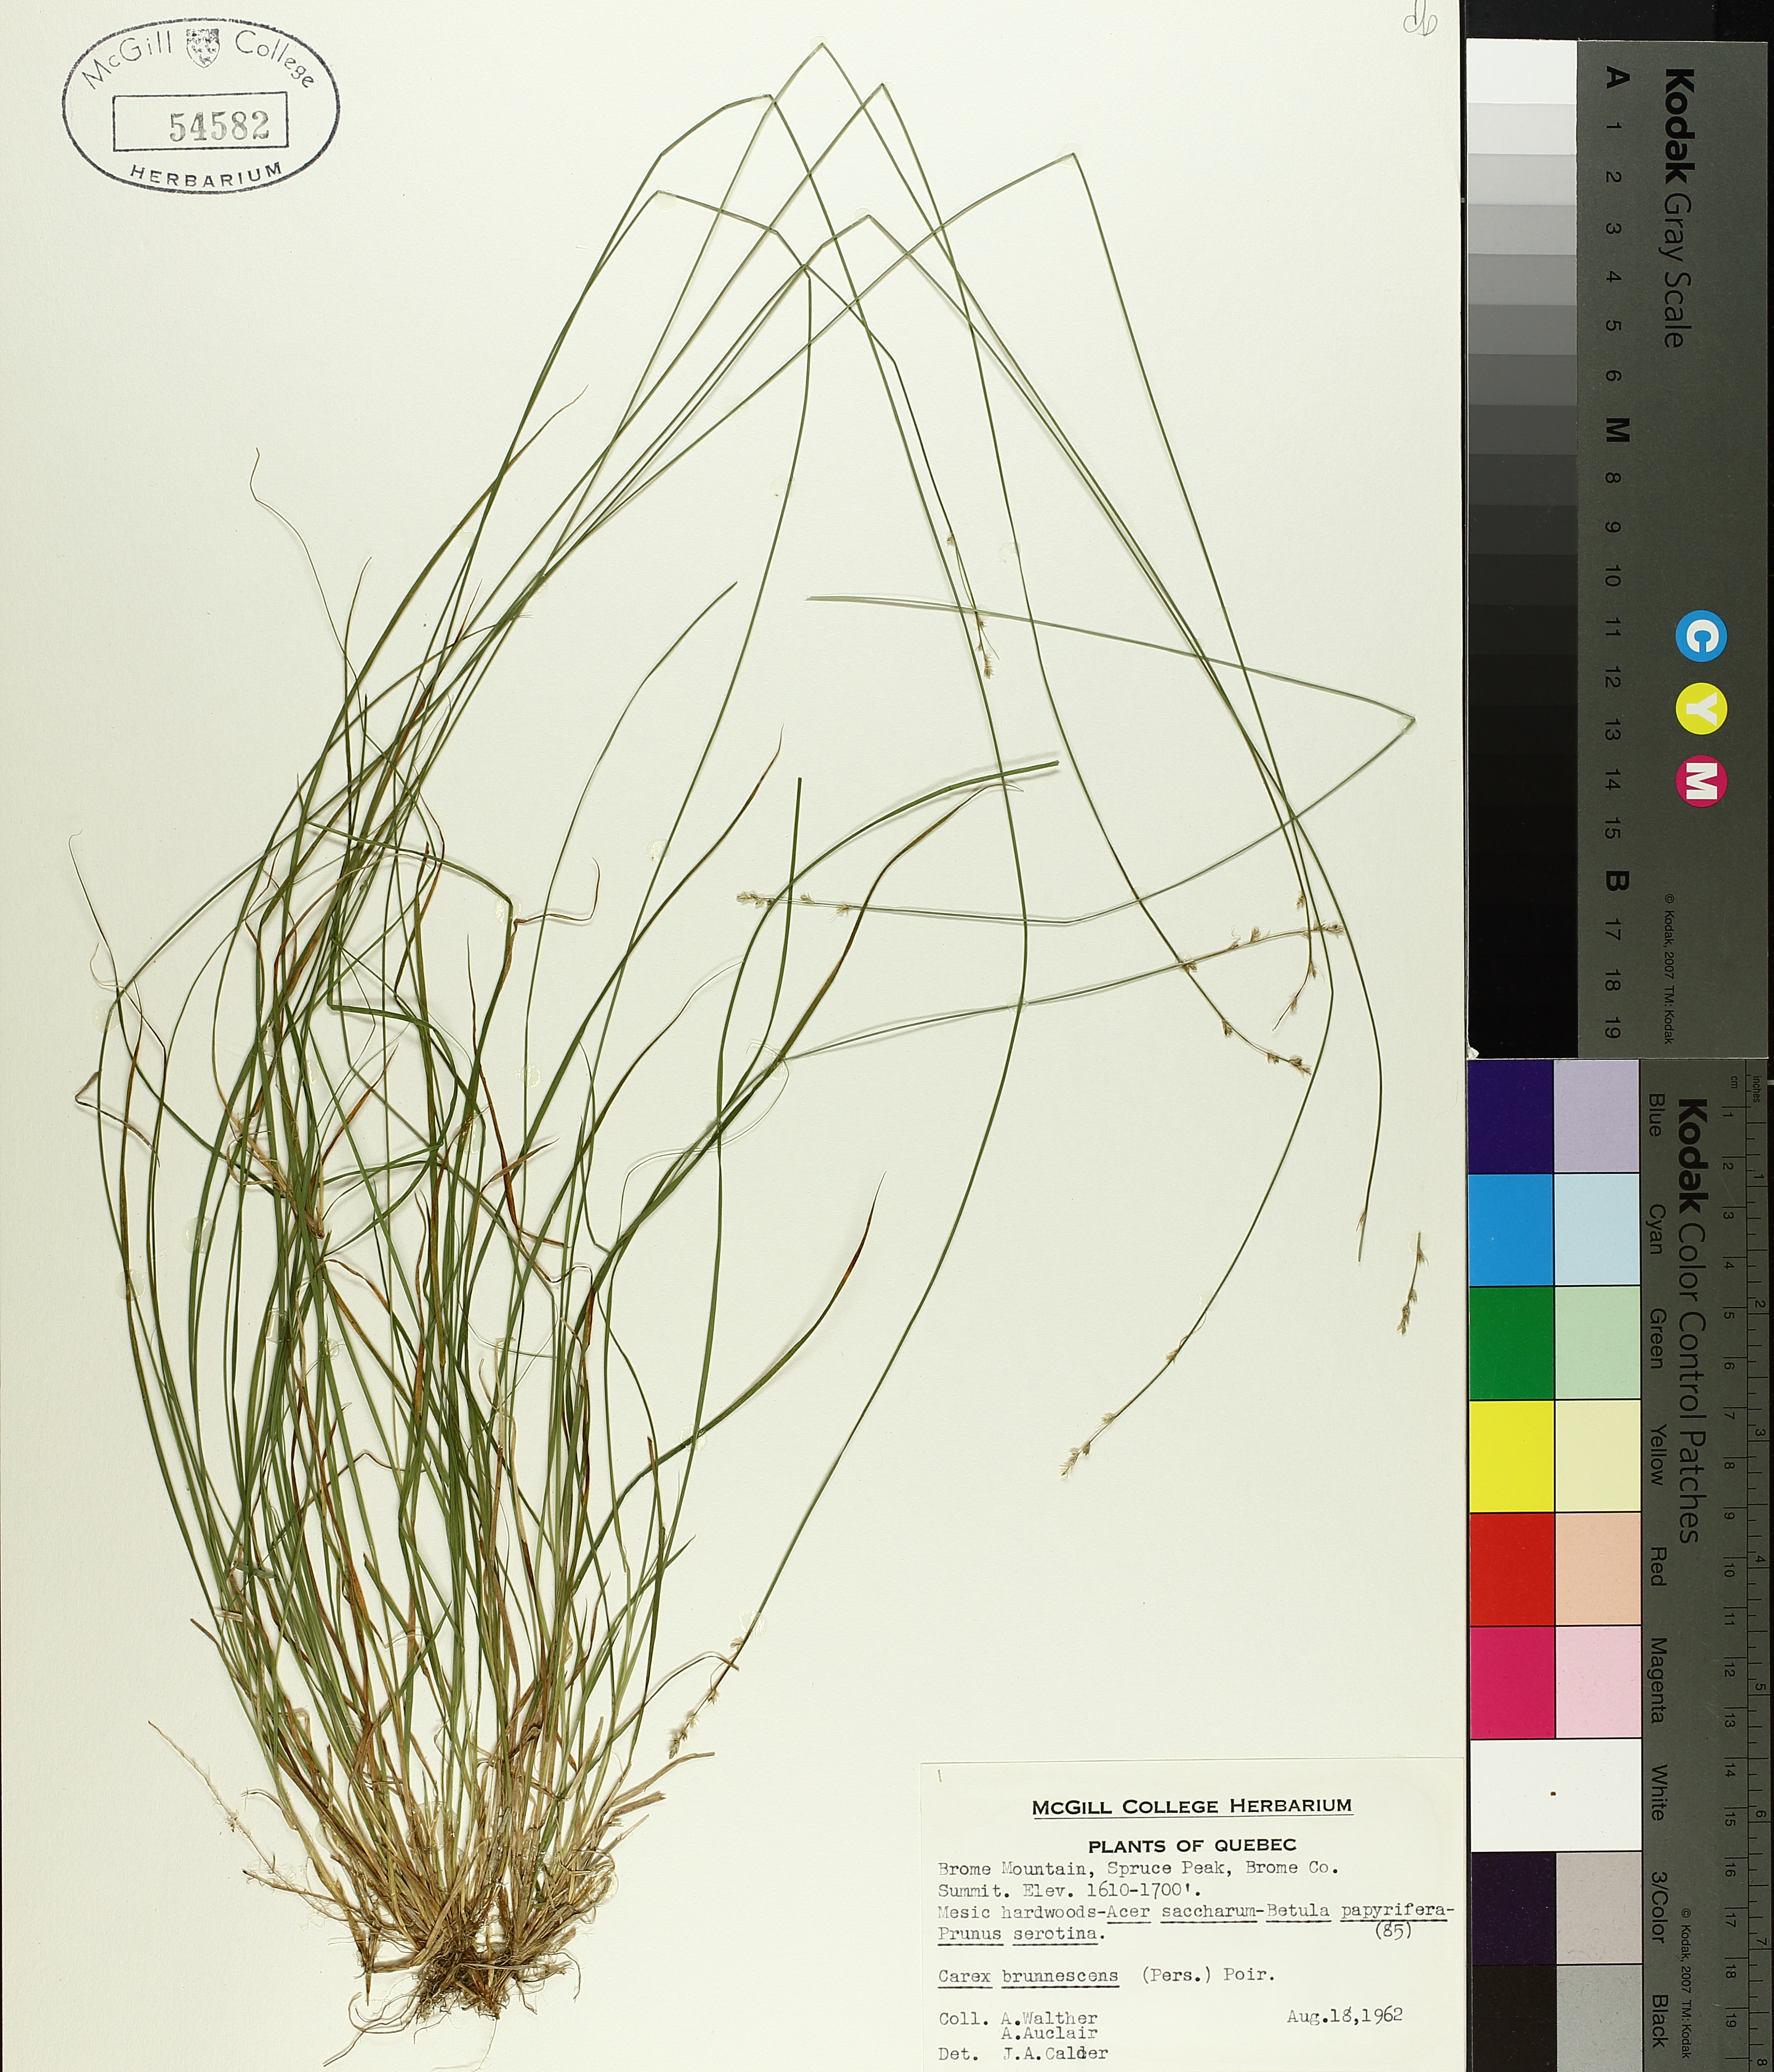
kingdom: Plantae
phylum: Tracheophyta
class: Liliopsida
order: Poales
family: Cyperaceae
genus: Carex
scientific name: Carex brunnescens
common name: Brown sedge
